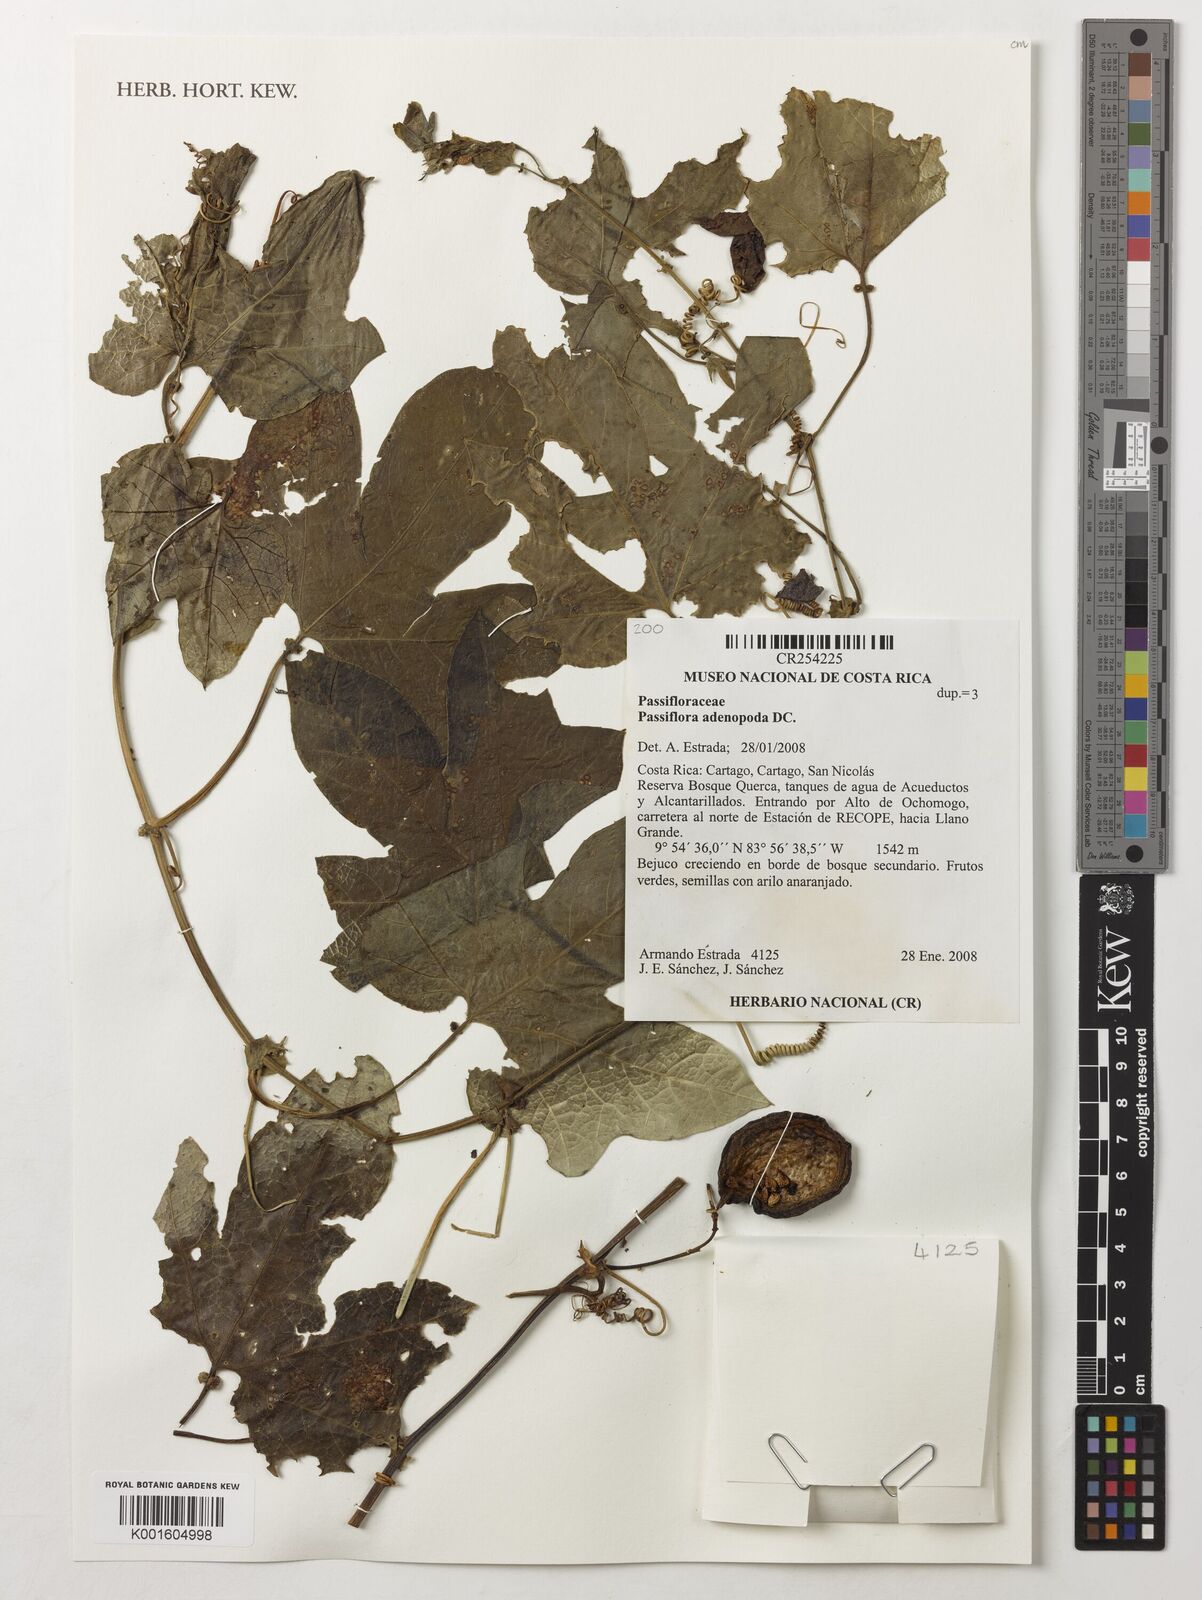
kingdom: Plantae
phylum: Tracheophyta
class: Magnoliopsida
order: Malpighiales
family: Passifloraceae
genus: Passiflora
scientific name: Passiflora adenopoda
